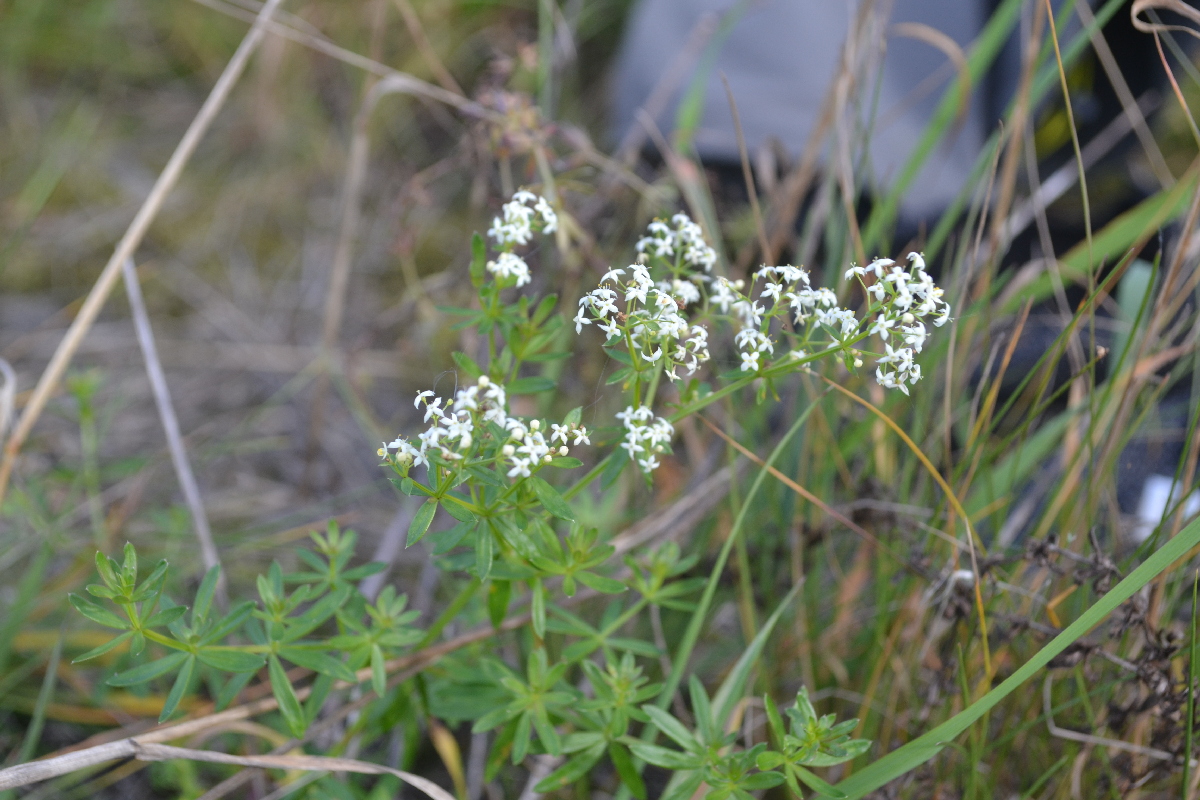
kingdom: Plantae
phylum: Tracheophyta
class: Magnoliopsida
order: Gentianales
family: Rubiaceae
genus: Galium
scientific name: Galium mollugo
